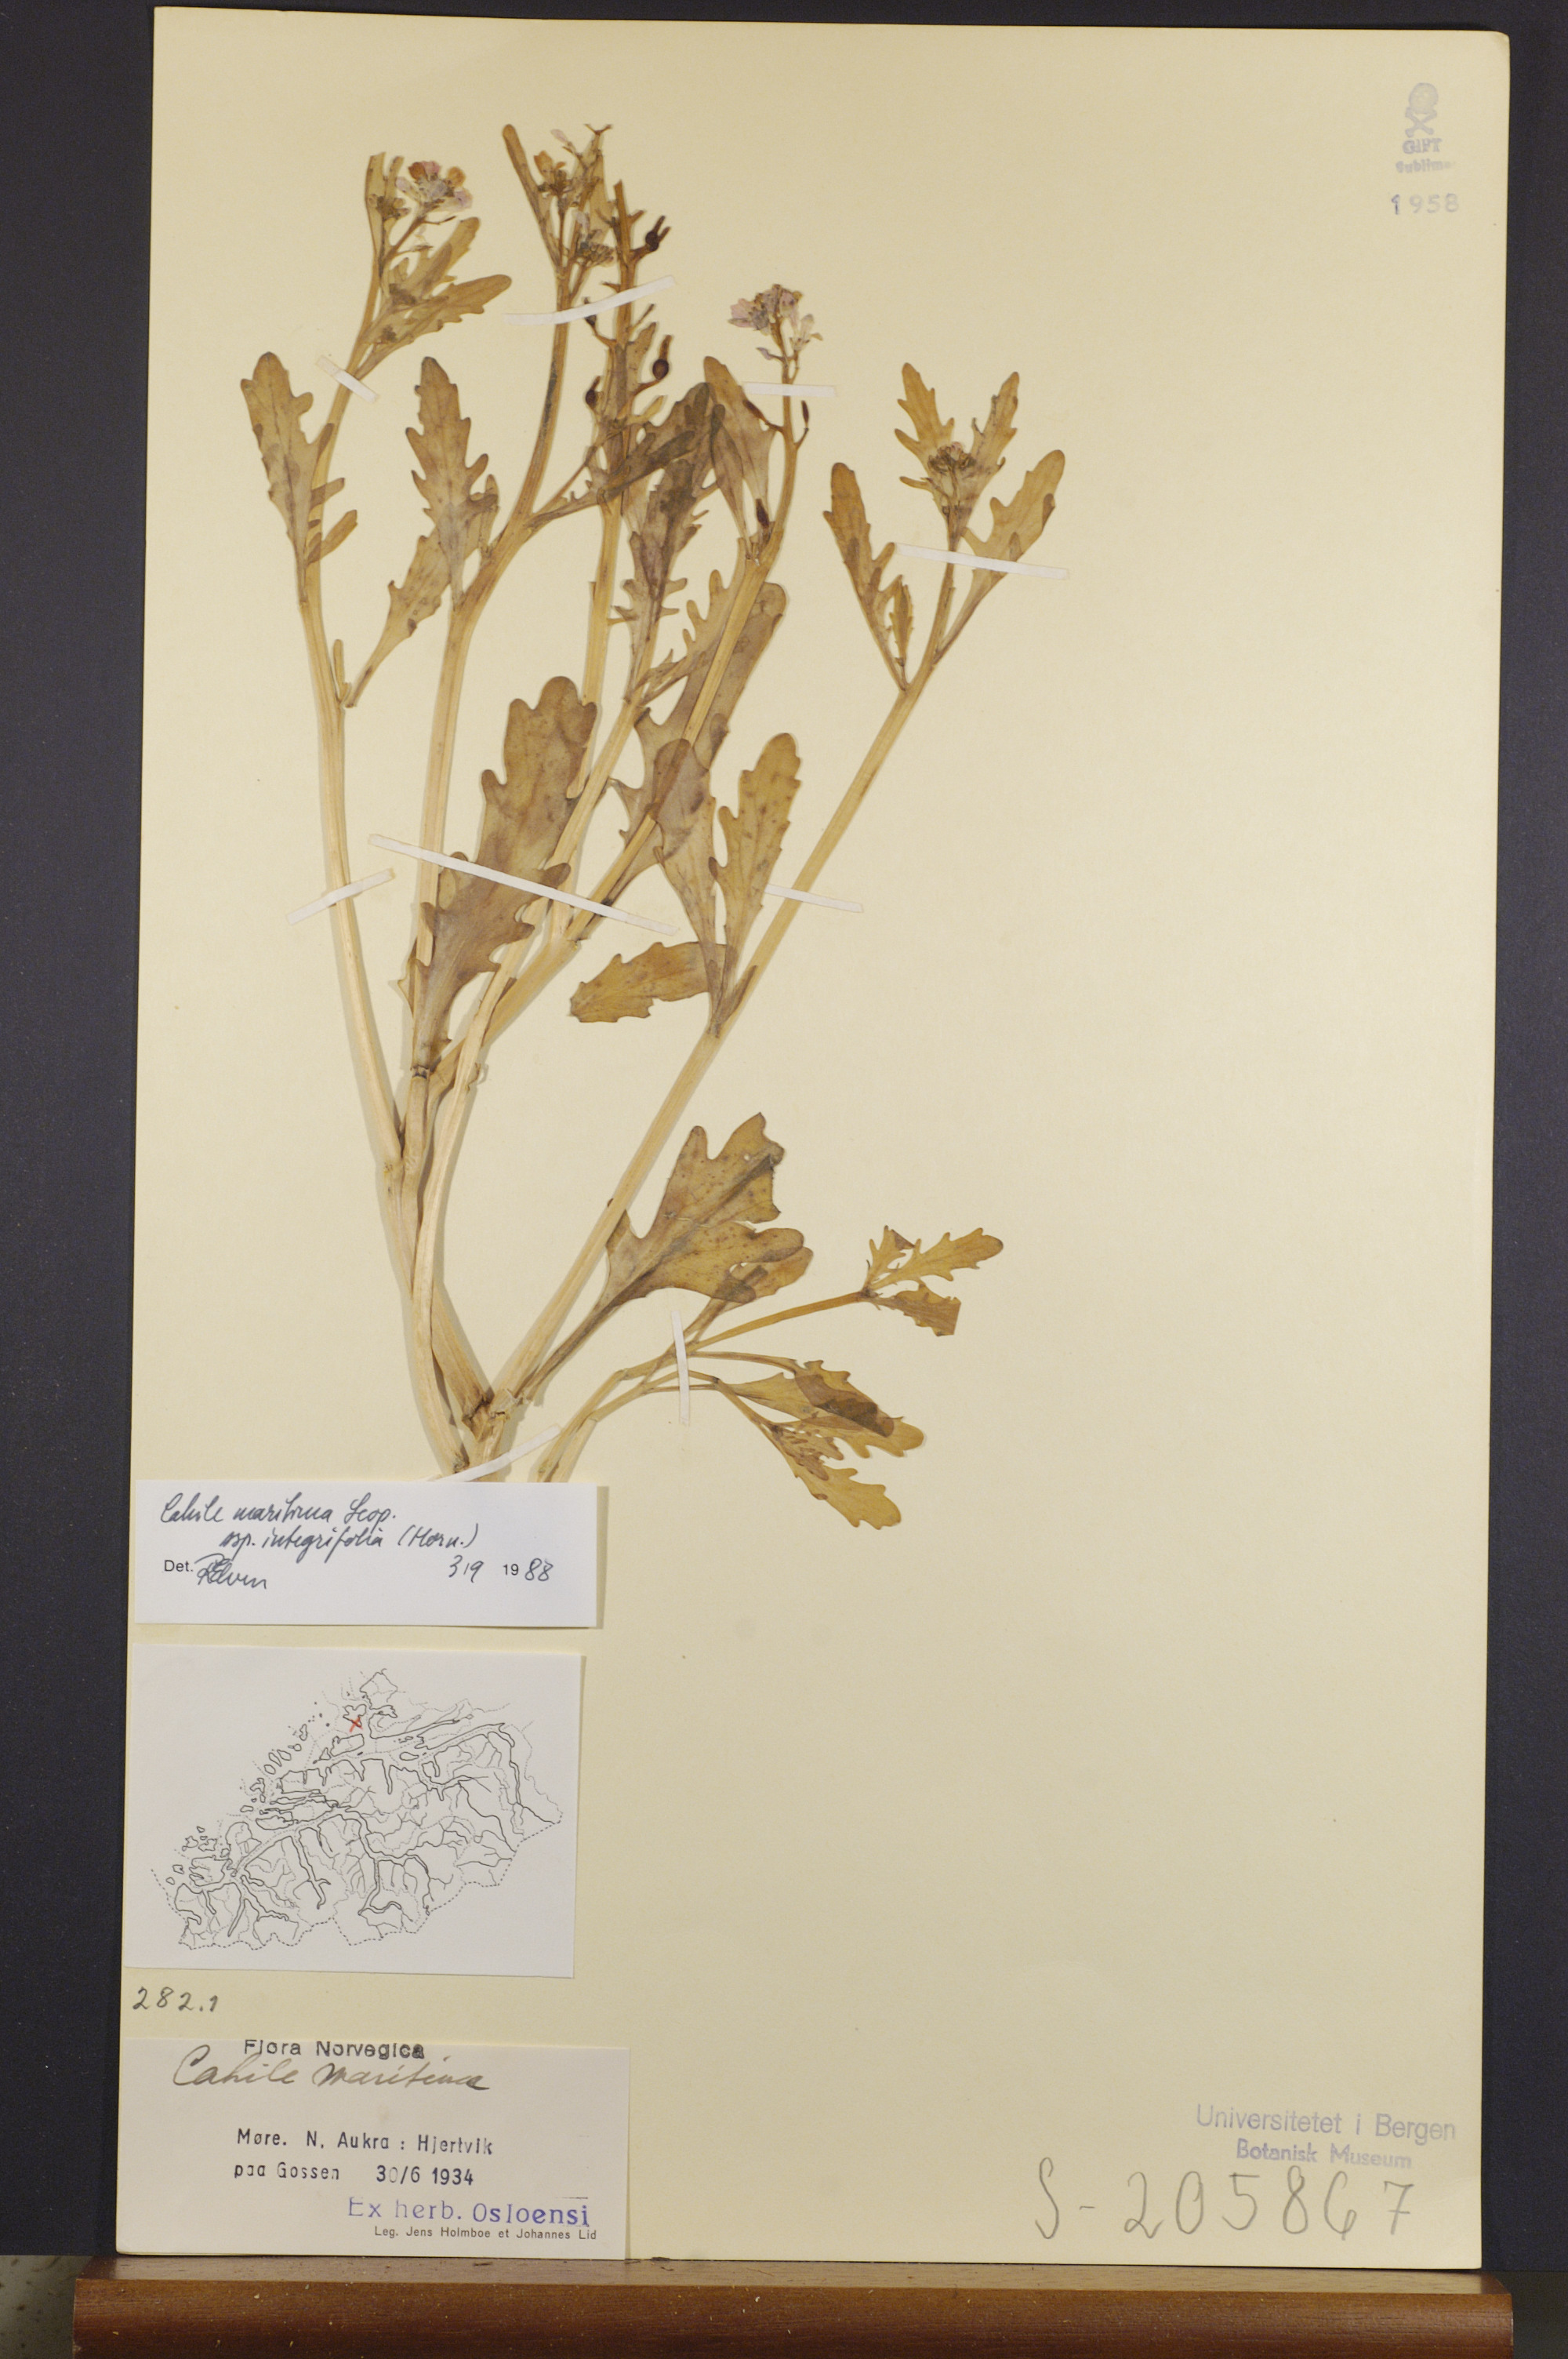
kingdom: Plantae
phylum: Tracheophyta
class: Magnoliopsida
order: Brassicales
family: Brassicaceae
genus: Cakile
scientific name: Cakile maritima
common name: Sea rocket
